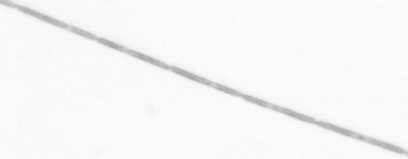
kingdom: Chromista
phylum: Ochrophyta
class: Bacillariophyceae
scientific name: Bacillariophyceae
